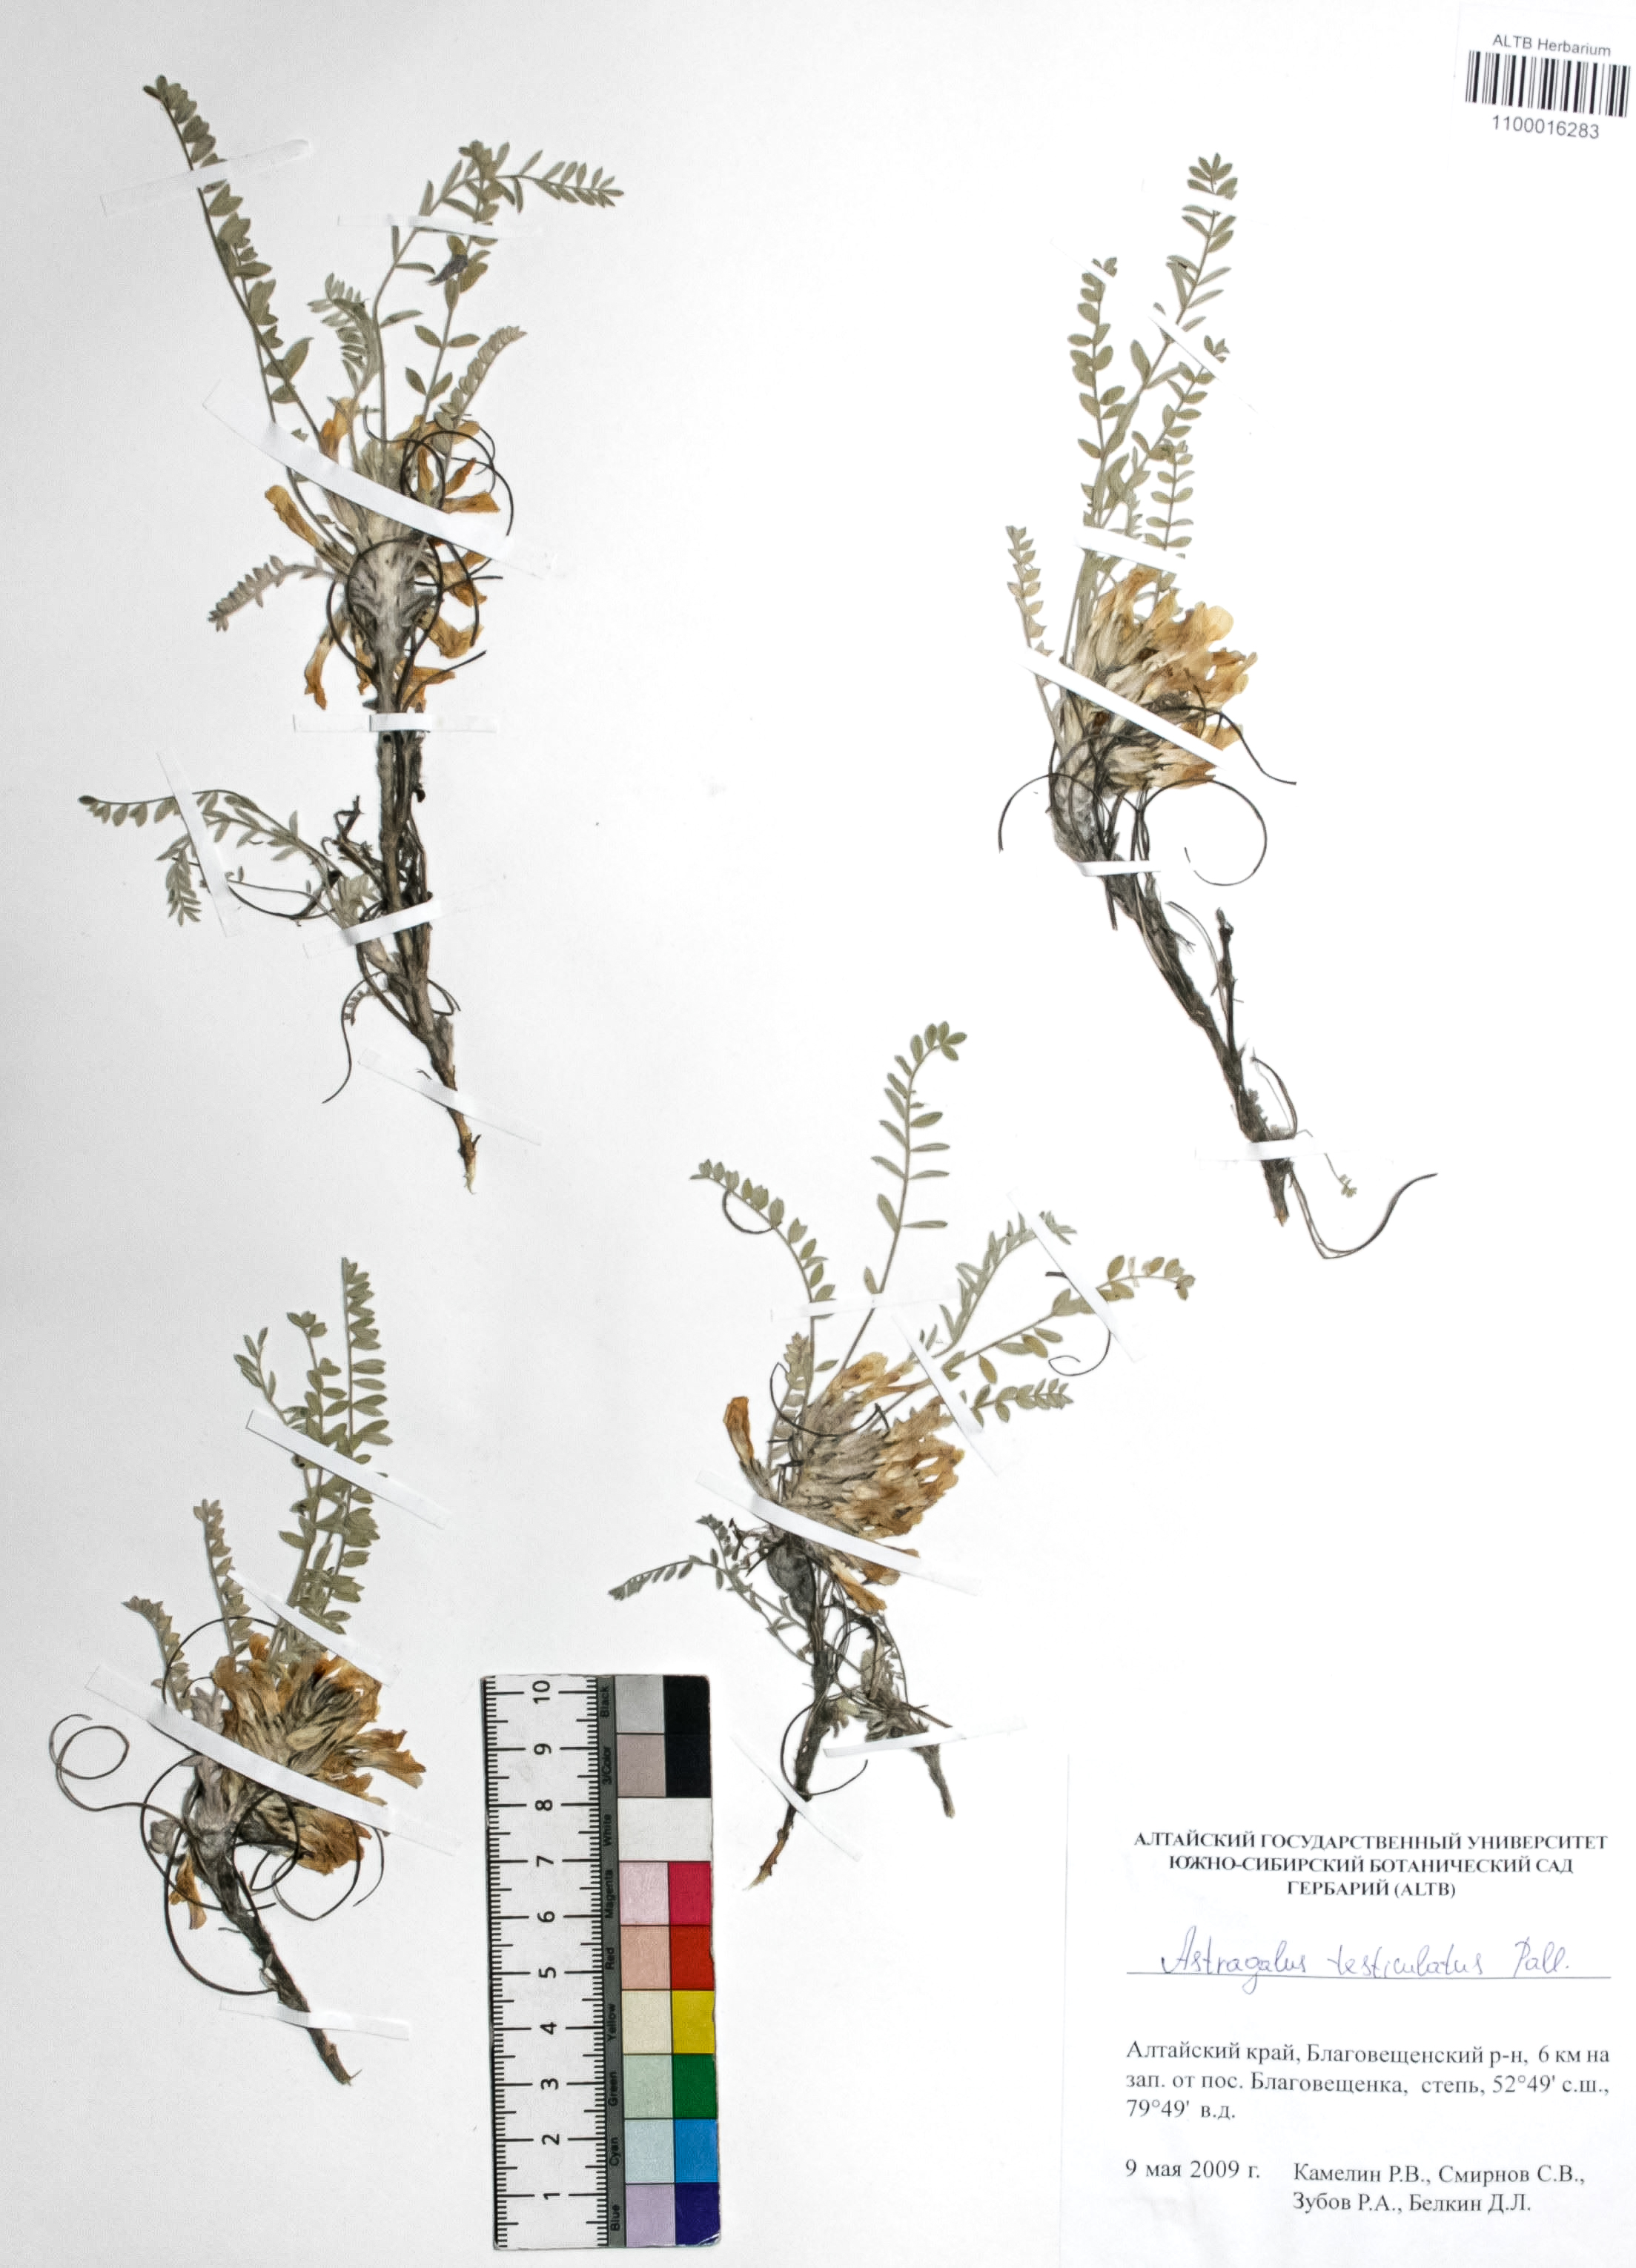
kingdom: Plantae
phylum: Tracheophyta
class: Magnoliopsida
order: Fabales
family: Fabaceae
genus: Astragalus
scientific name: Astragalus testiculatus
